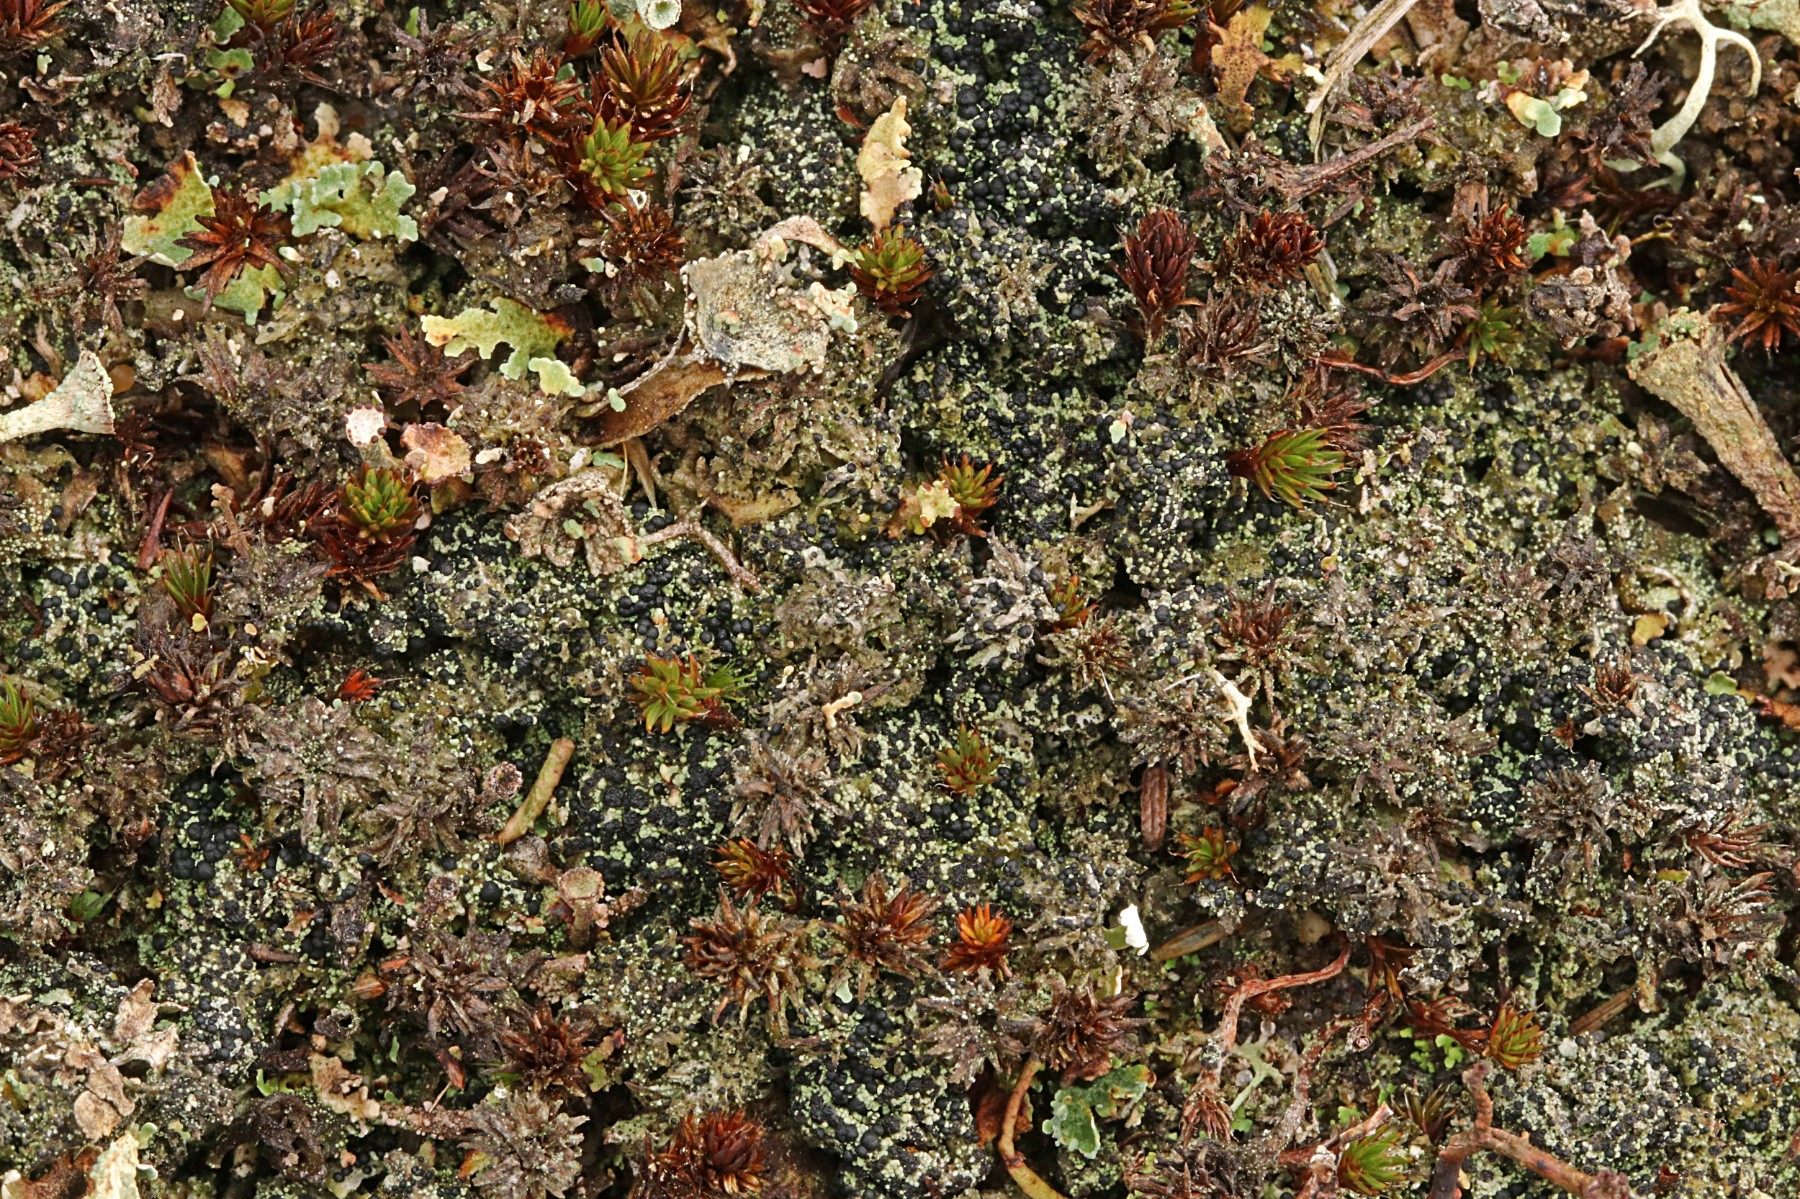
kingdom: Fungi
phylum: Ascomycota
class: Lecanoromycetes
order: Lecanorales
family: Byssolomataceae
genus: Micarea
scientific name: Micarea lignaria
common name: tørve-knaplav
